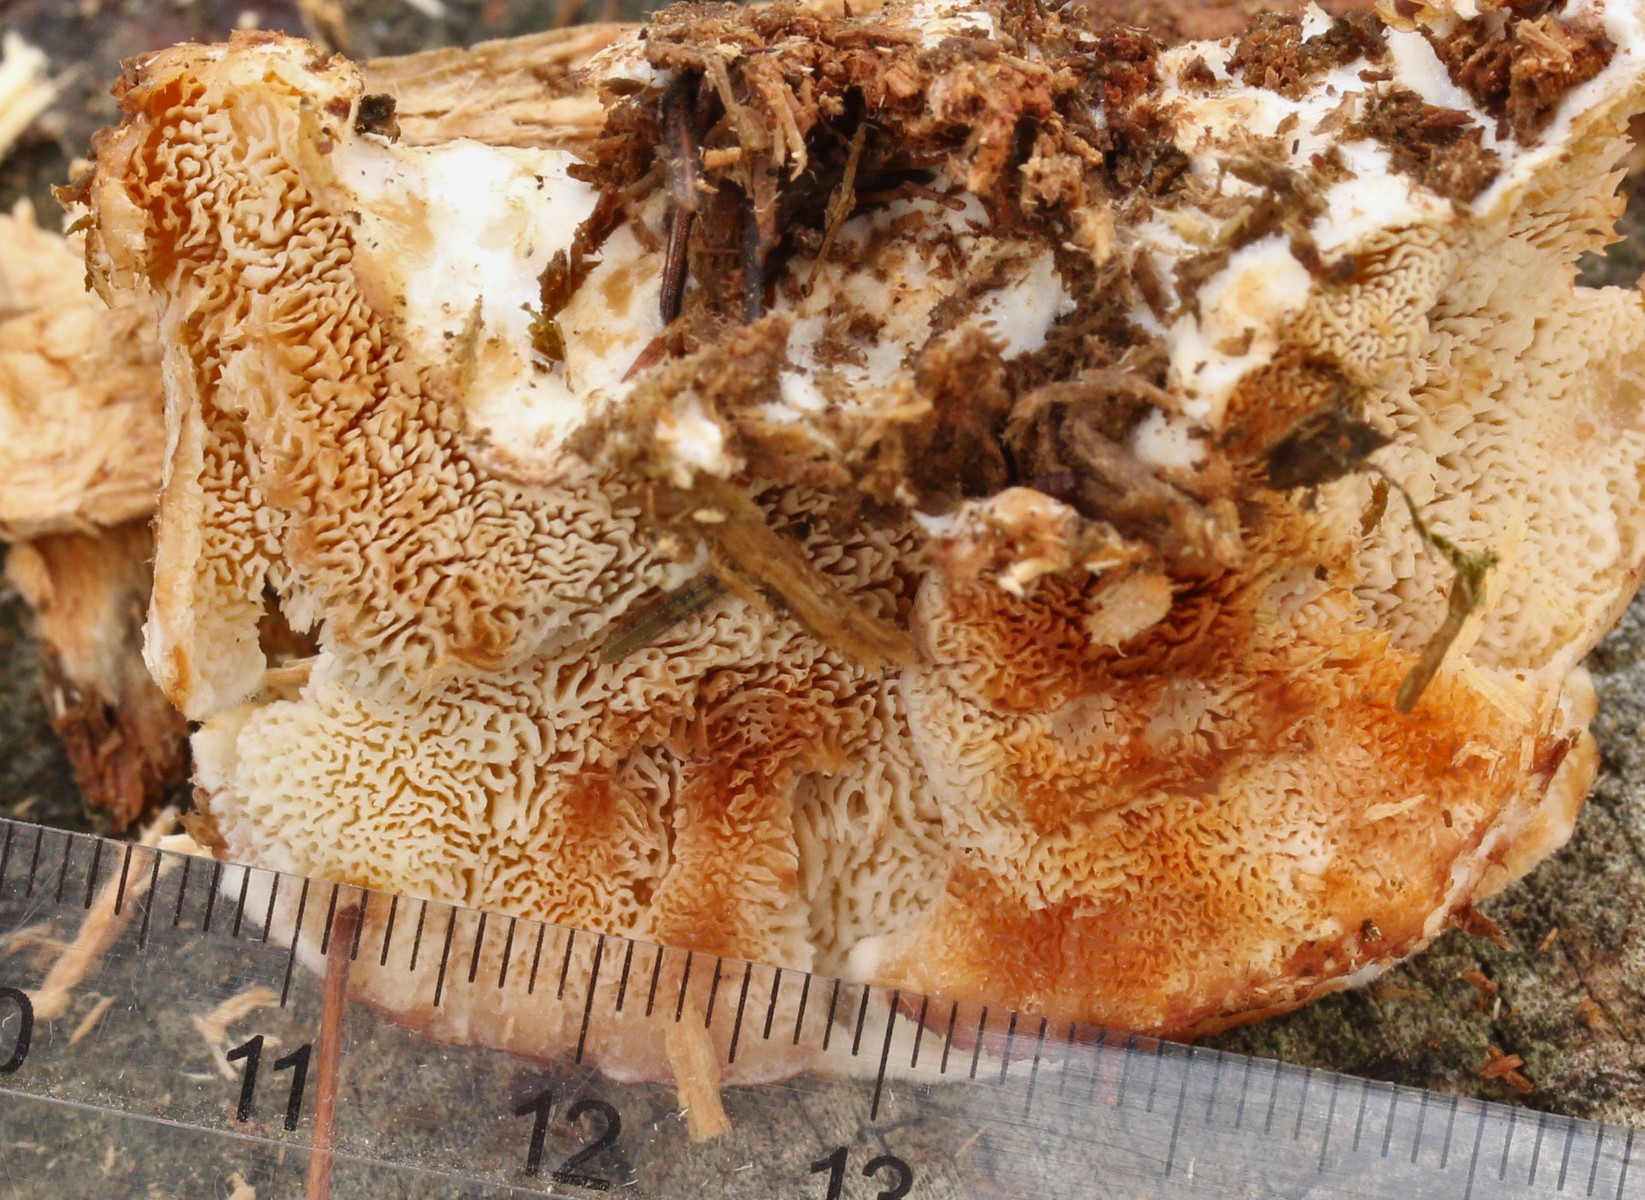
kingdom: Fungi
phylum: Basidiomycota
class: Agaricomycetes
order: Polyporales
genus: Fuscopostia
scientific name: Fuscopostia fragilis
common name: brunende kødporesvamp
